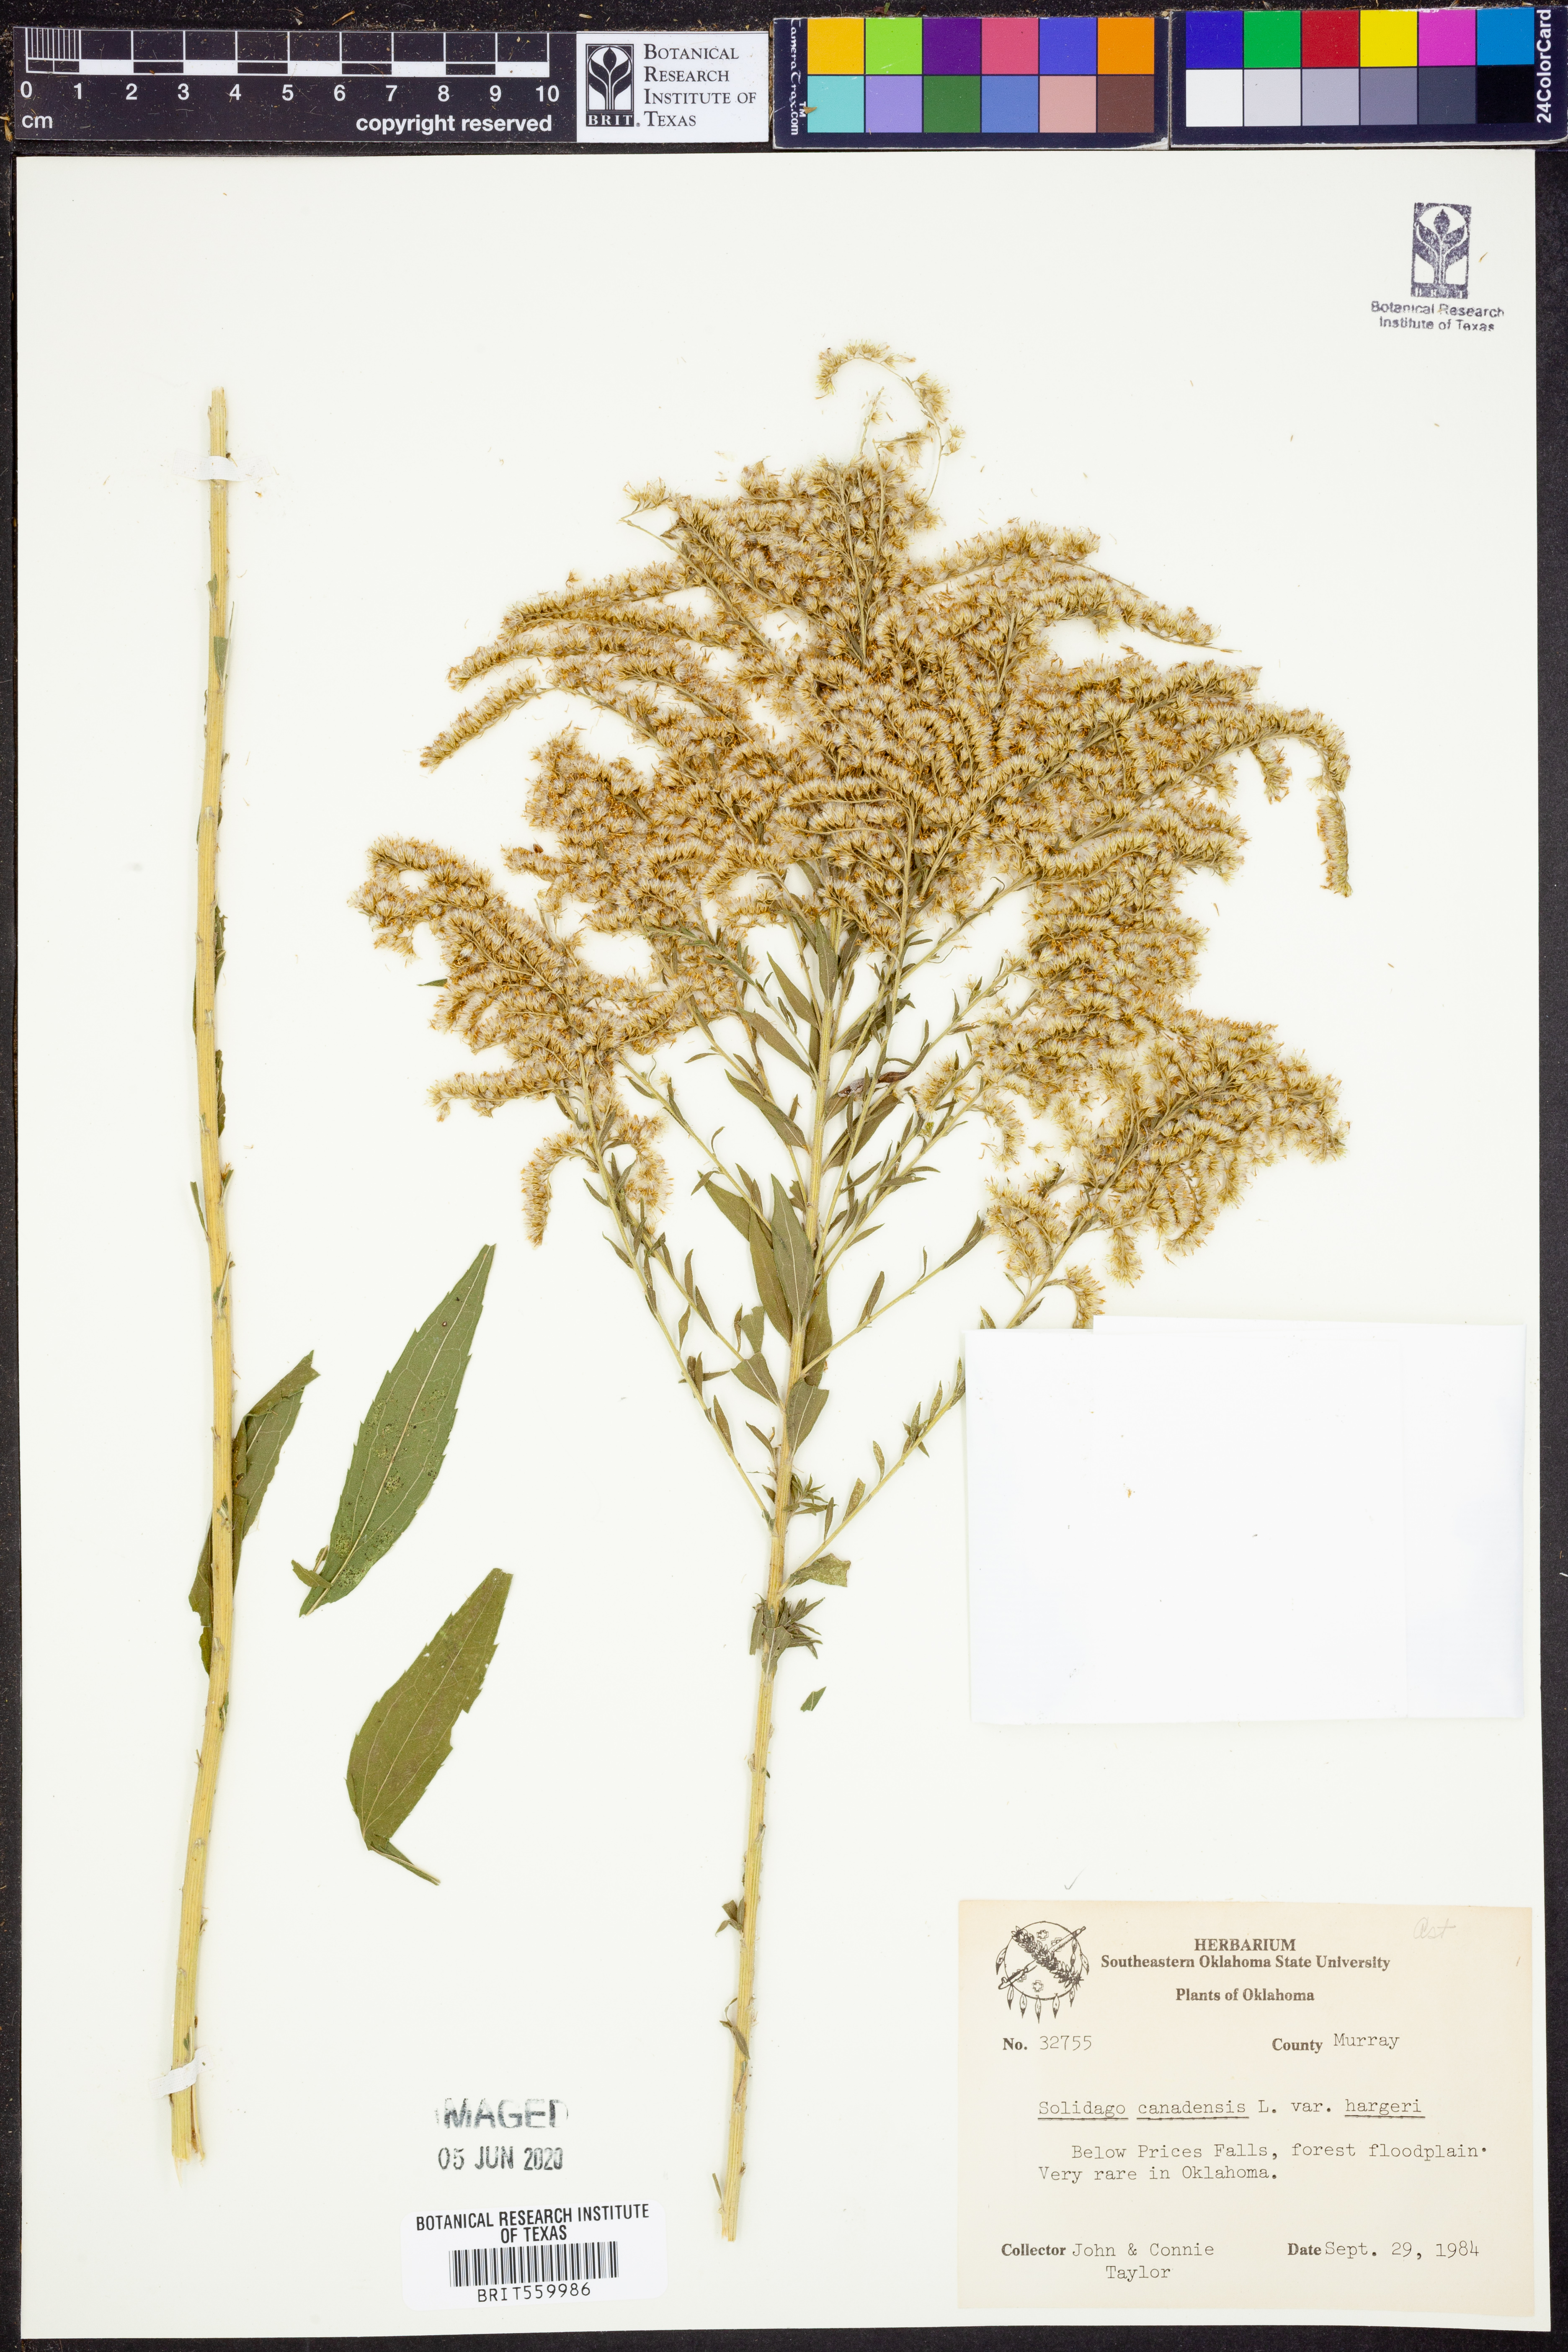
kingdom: Plantae
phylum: Tracheophyta
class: Magnoliopsida
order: Asterales
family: Asteraceae
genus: Solidago
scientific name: Solidago canadensis
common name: Canada goldenrod
